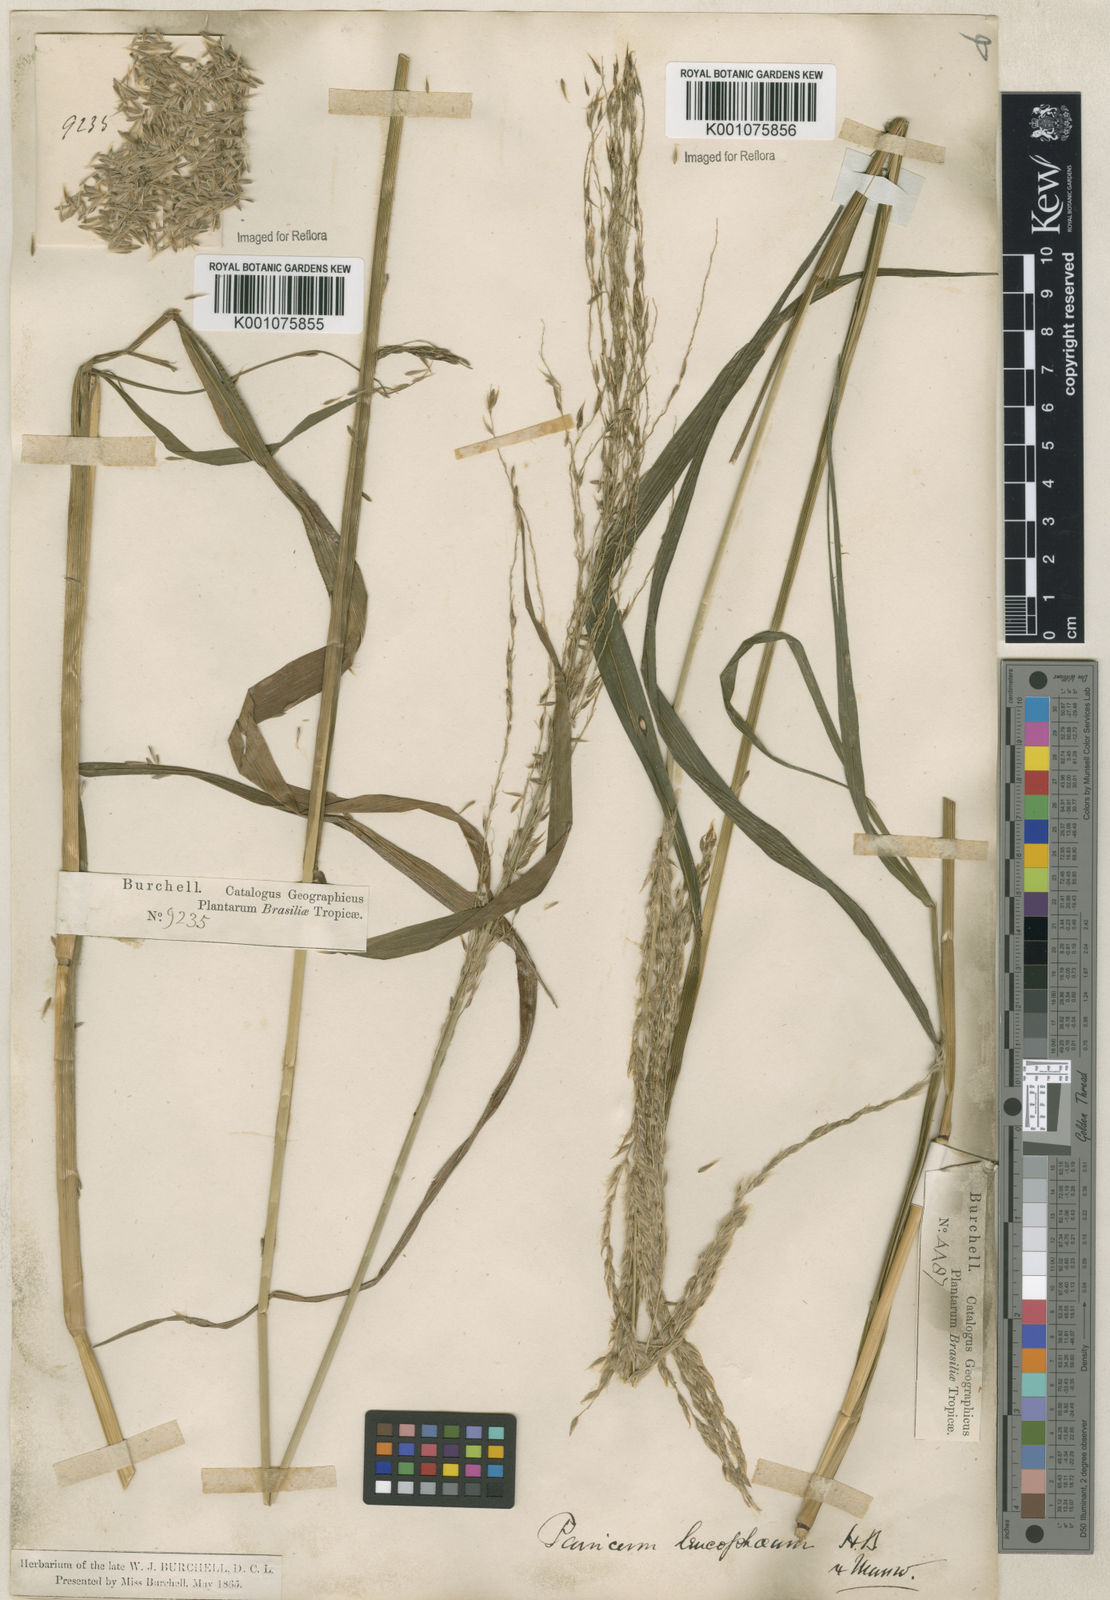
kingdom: Plantae
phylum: Tracheophyta
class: Liliopsida
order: Poales
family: Poaceae
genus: Digitaria
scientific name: Digitaria
